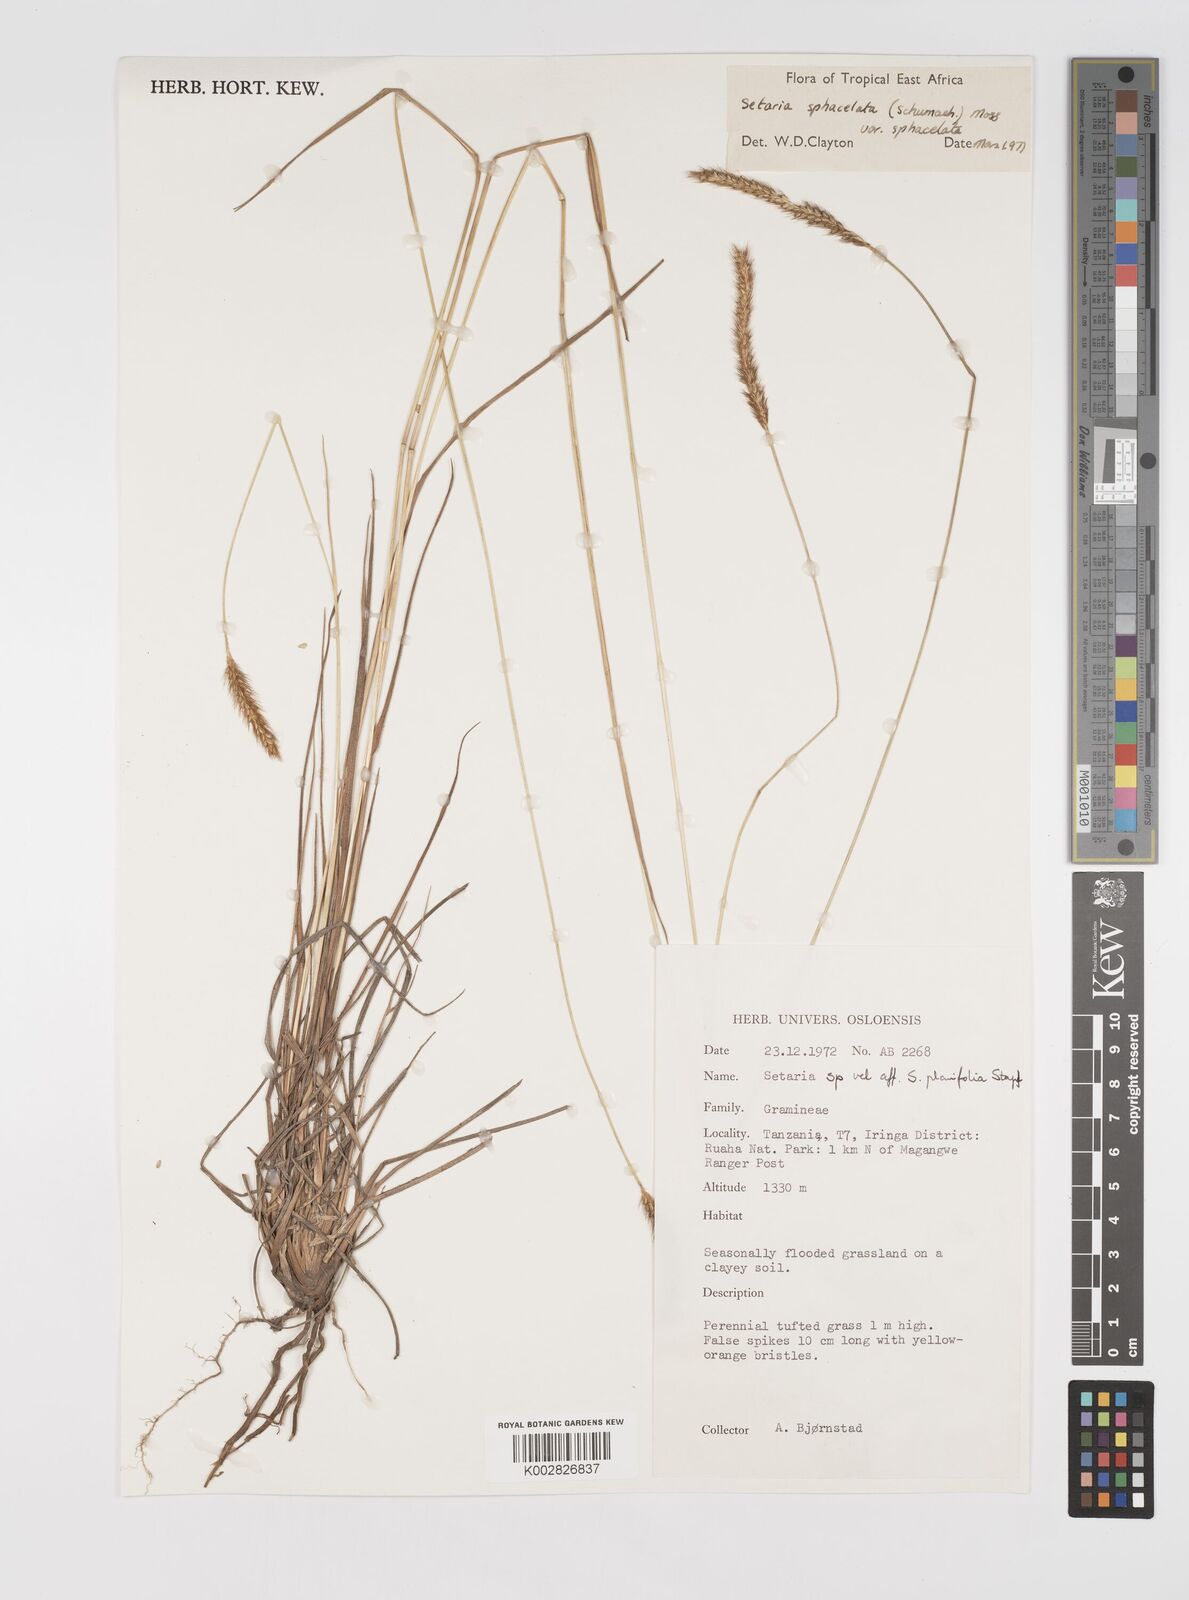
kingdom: Plantae
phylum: Tracheophyta
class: Liliopsida
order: Poales
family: Poaceae
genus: Setaria
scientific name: Setaria sphacelata
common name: African bristlegrass
